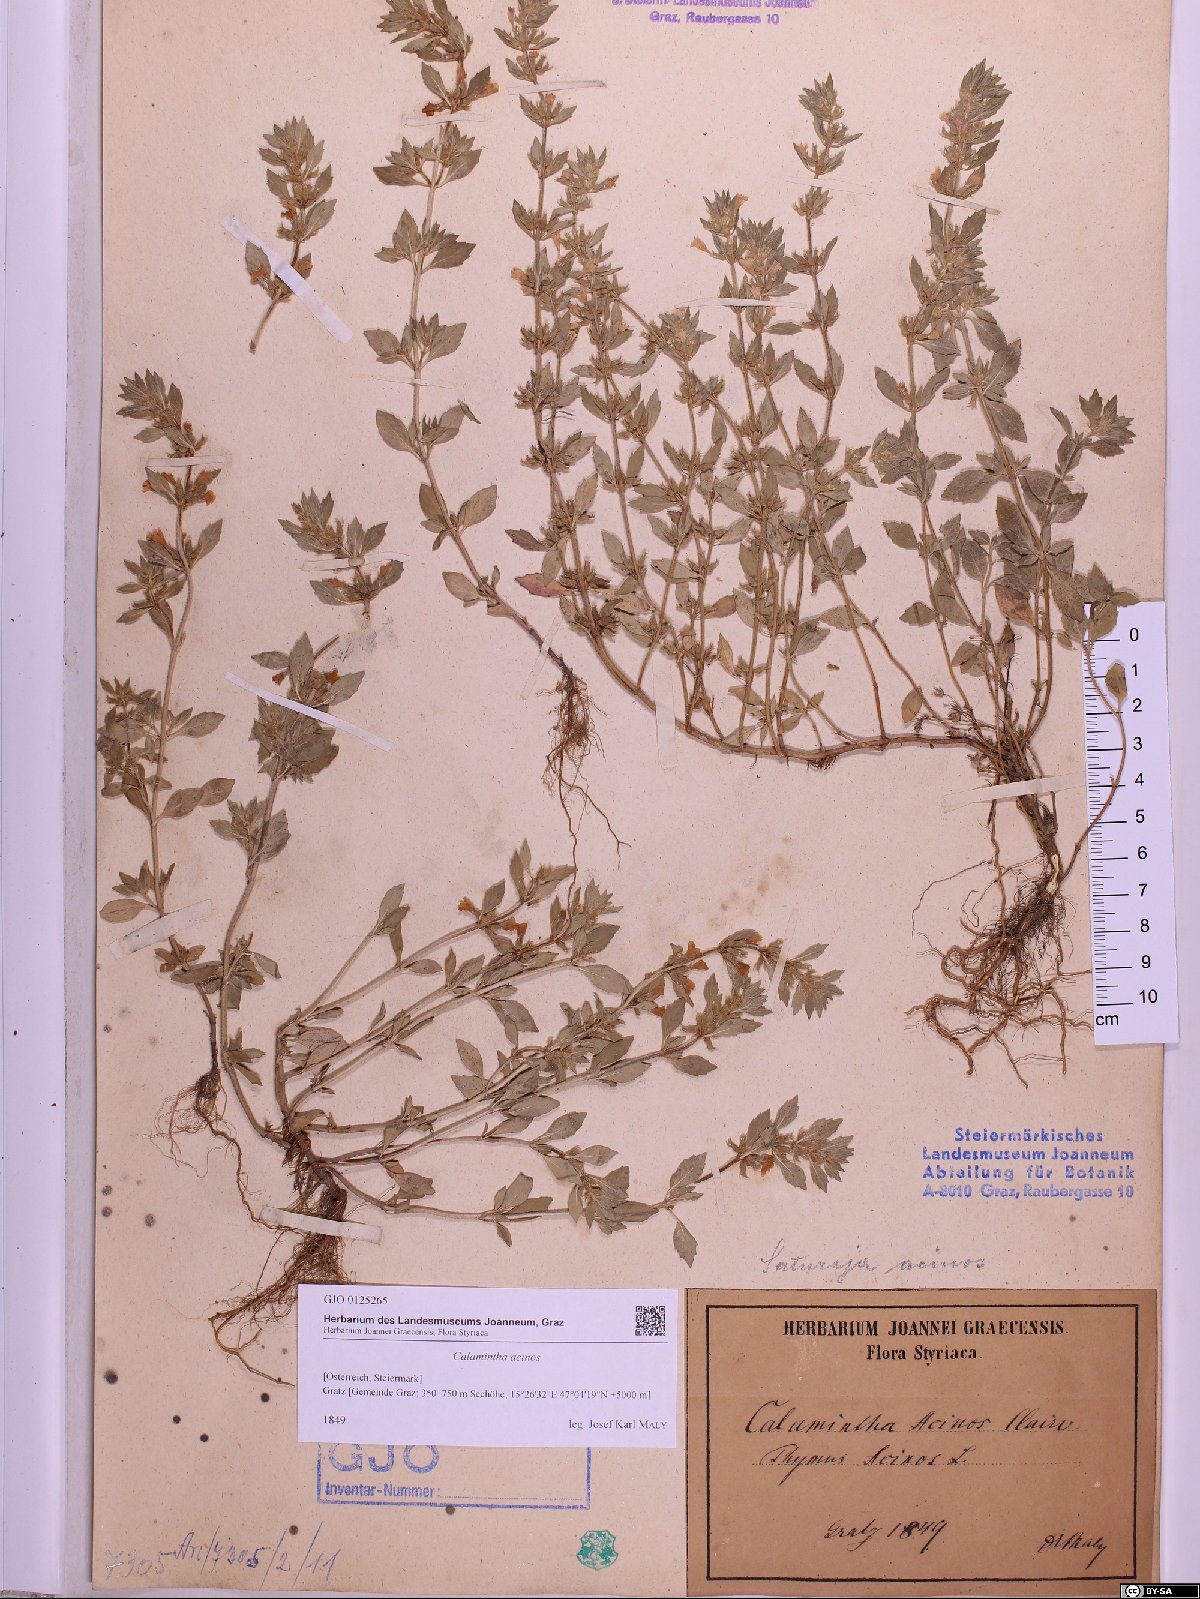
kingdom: Plantae
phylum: Tracheophyta
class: Magnoliopsida
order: Lamiales
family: Lamiaceae
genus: Clinopodium
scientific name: Clinopodium acinos
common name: Basil thyme
